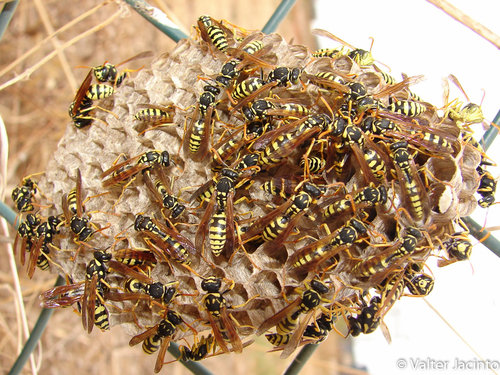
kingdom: Animalia
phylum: Arthropoda
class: Insecta
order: Hymenoptera
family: Eumenidae
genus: Polistes
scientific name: Polistes gallicus
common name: Paper wasp
